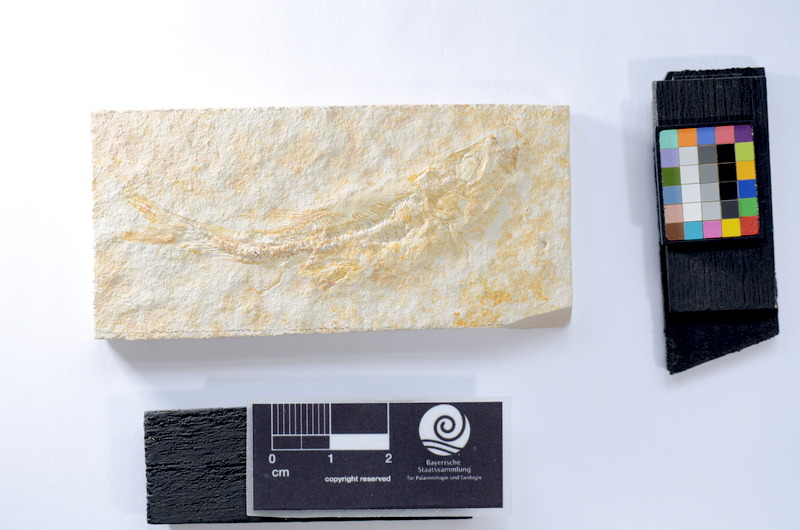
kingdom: Animalia
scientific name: Animalia
